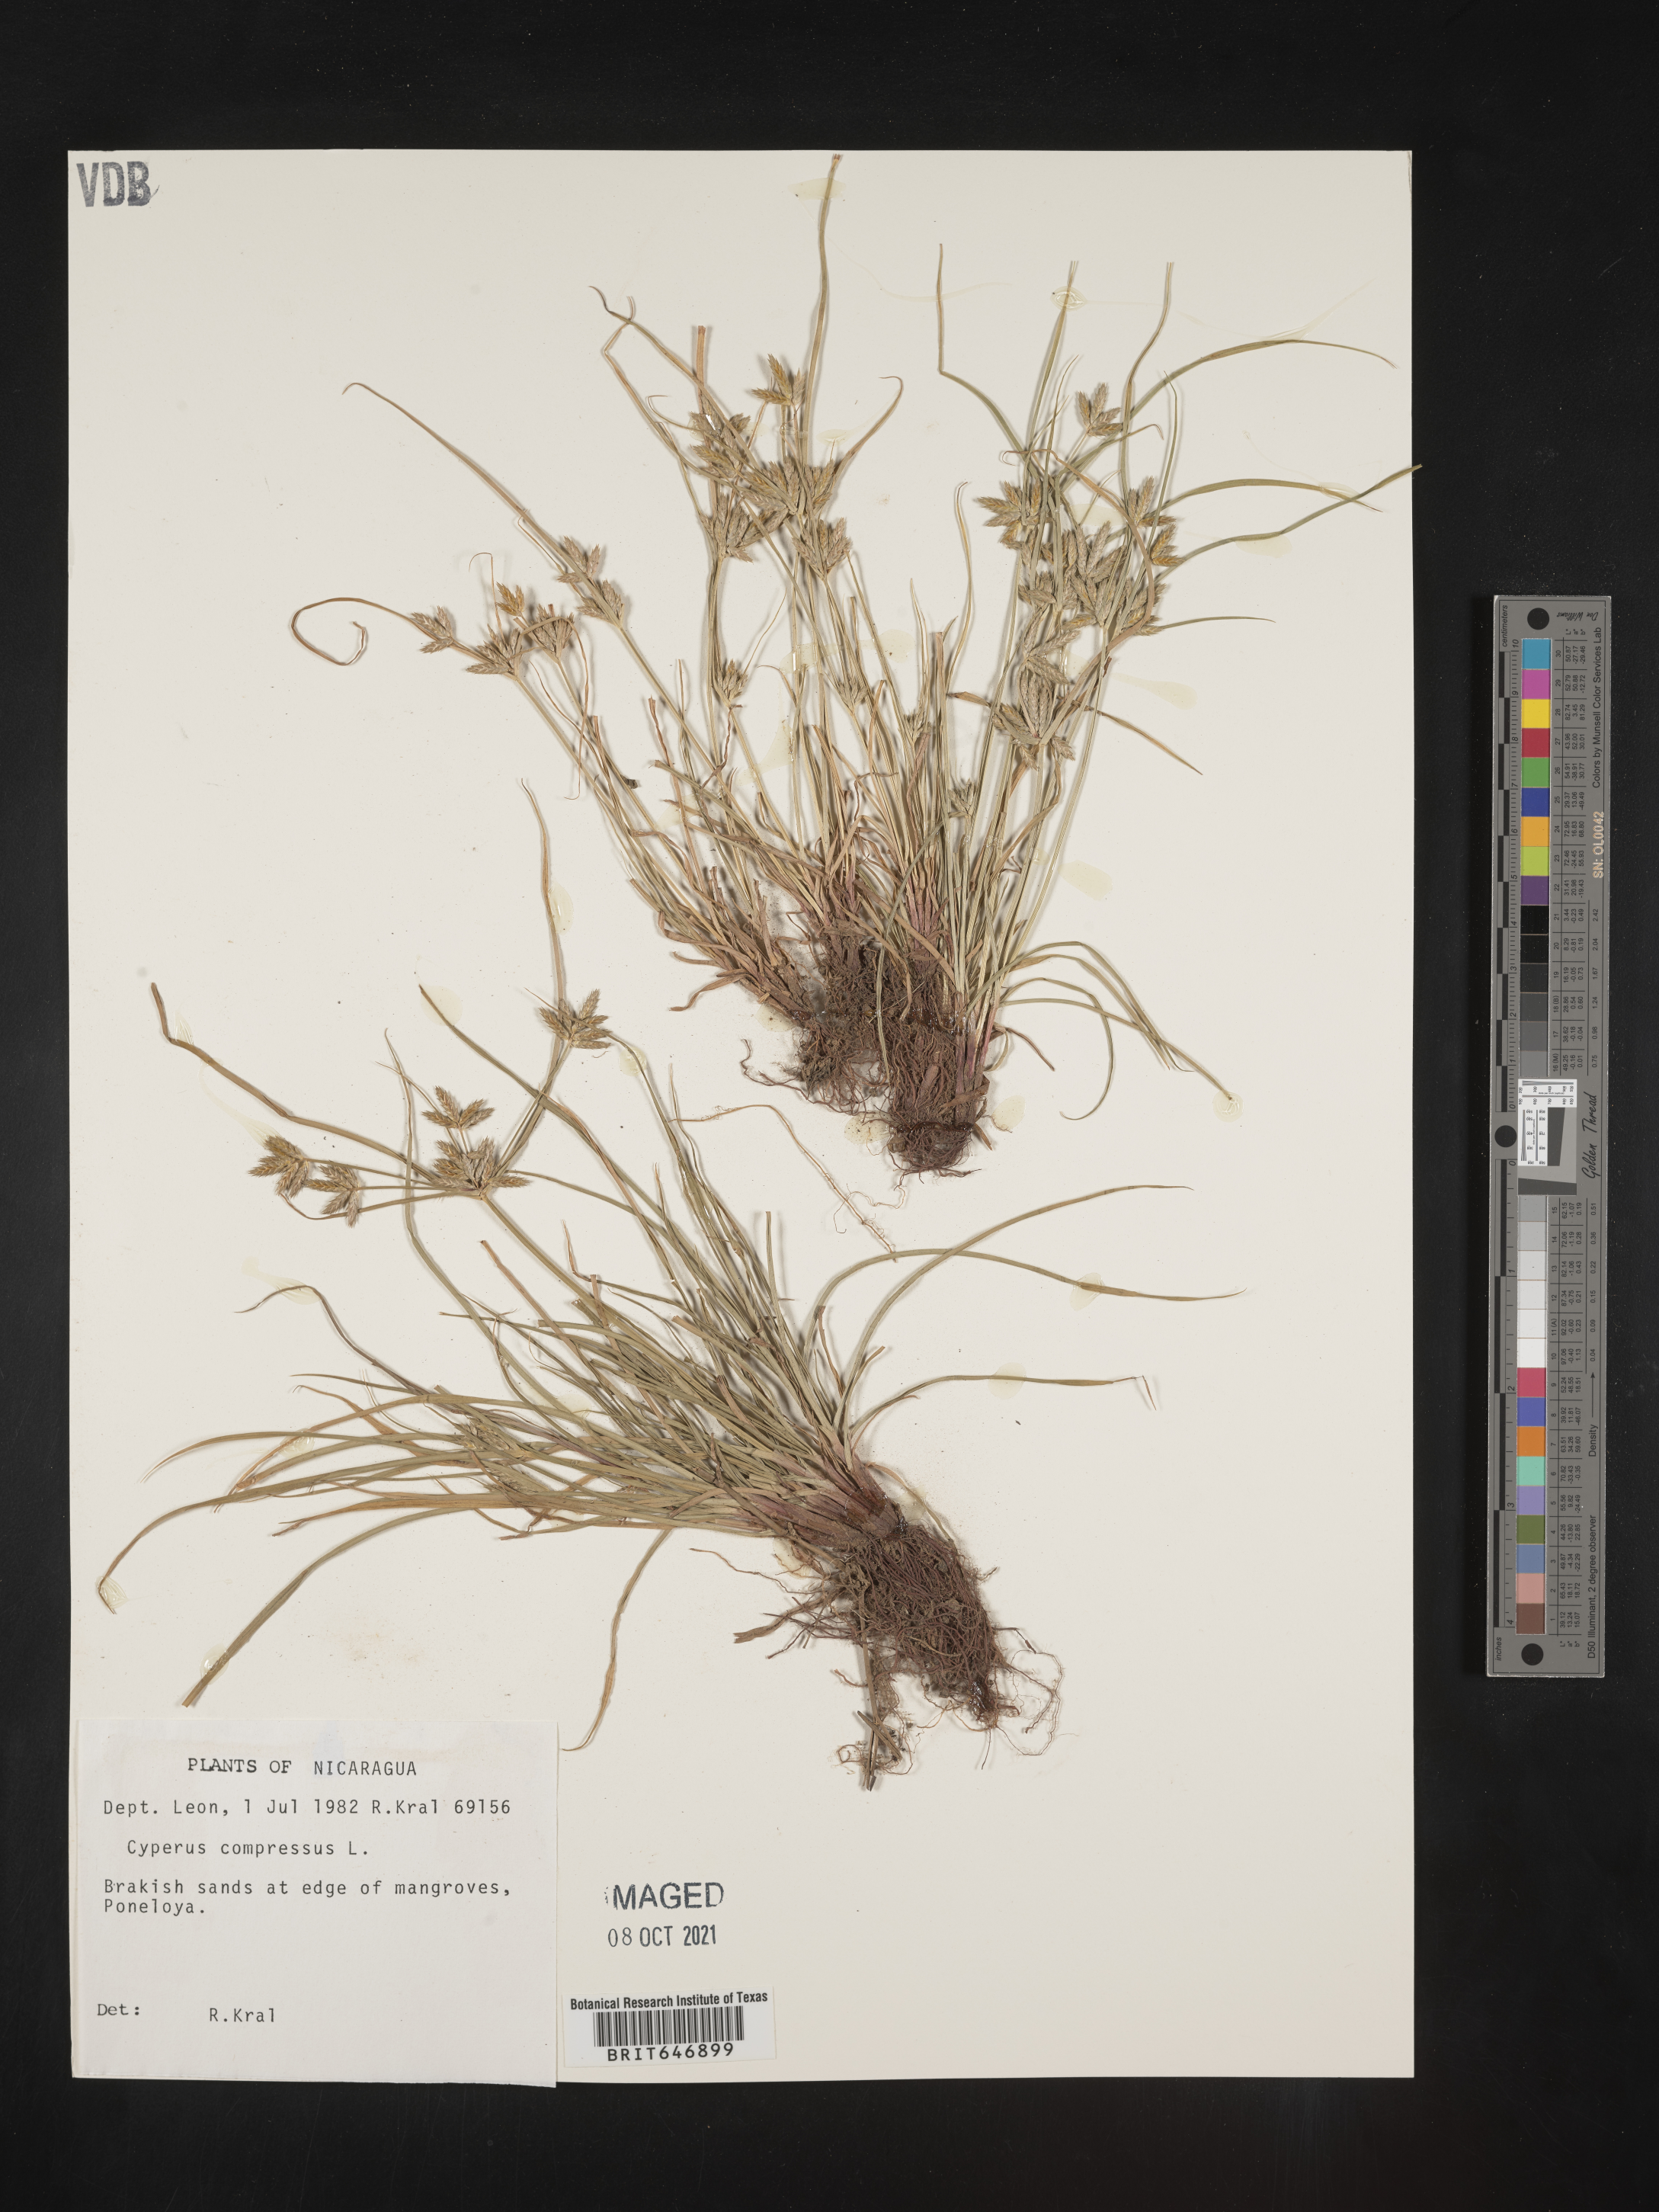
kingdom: Plantae
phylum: Tracheophyta
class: Liliopsida
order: Poales
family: Cyperaceae
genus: Cyperus
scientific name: Cyperus compressus
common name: Poorland flatsedge
